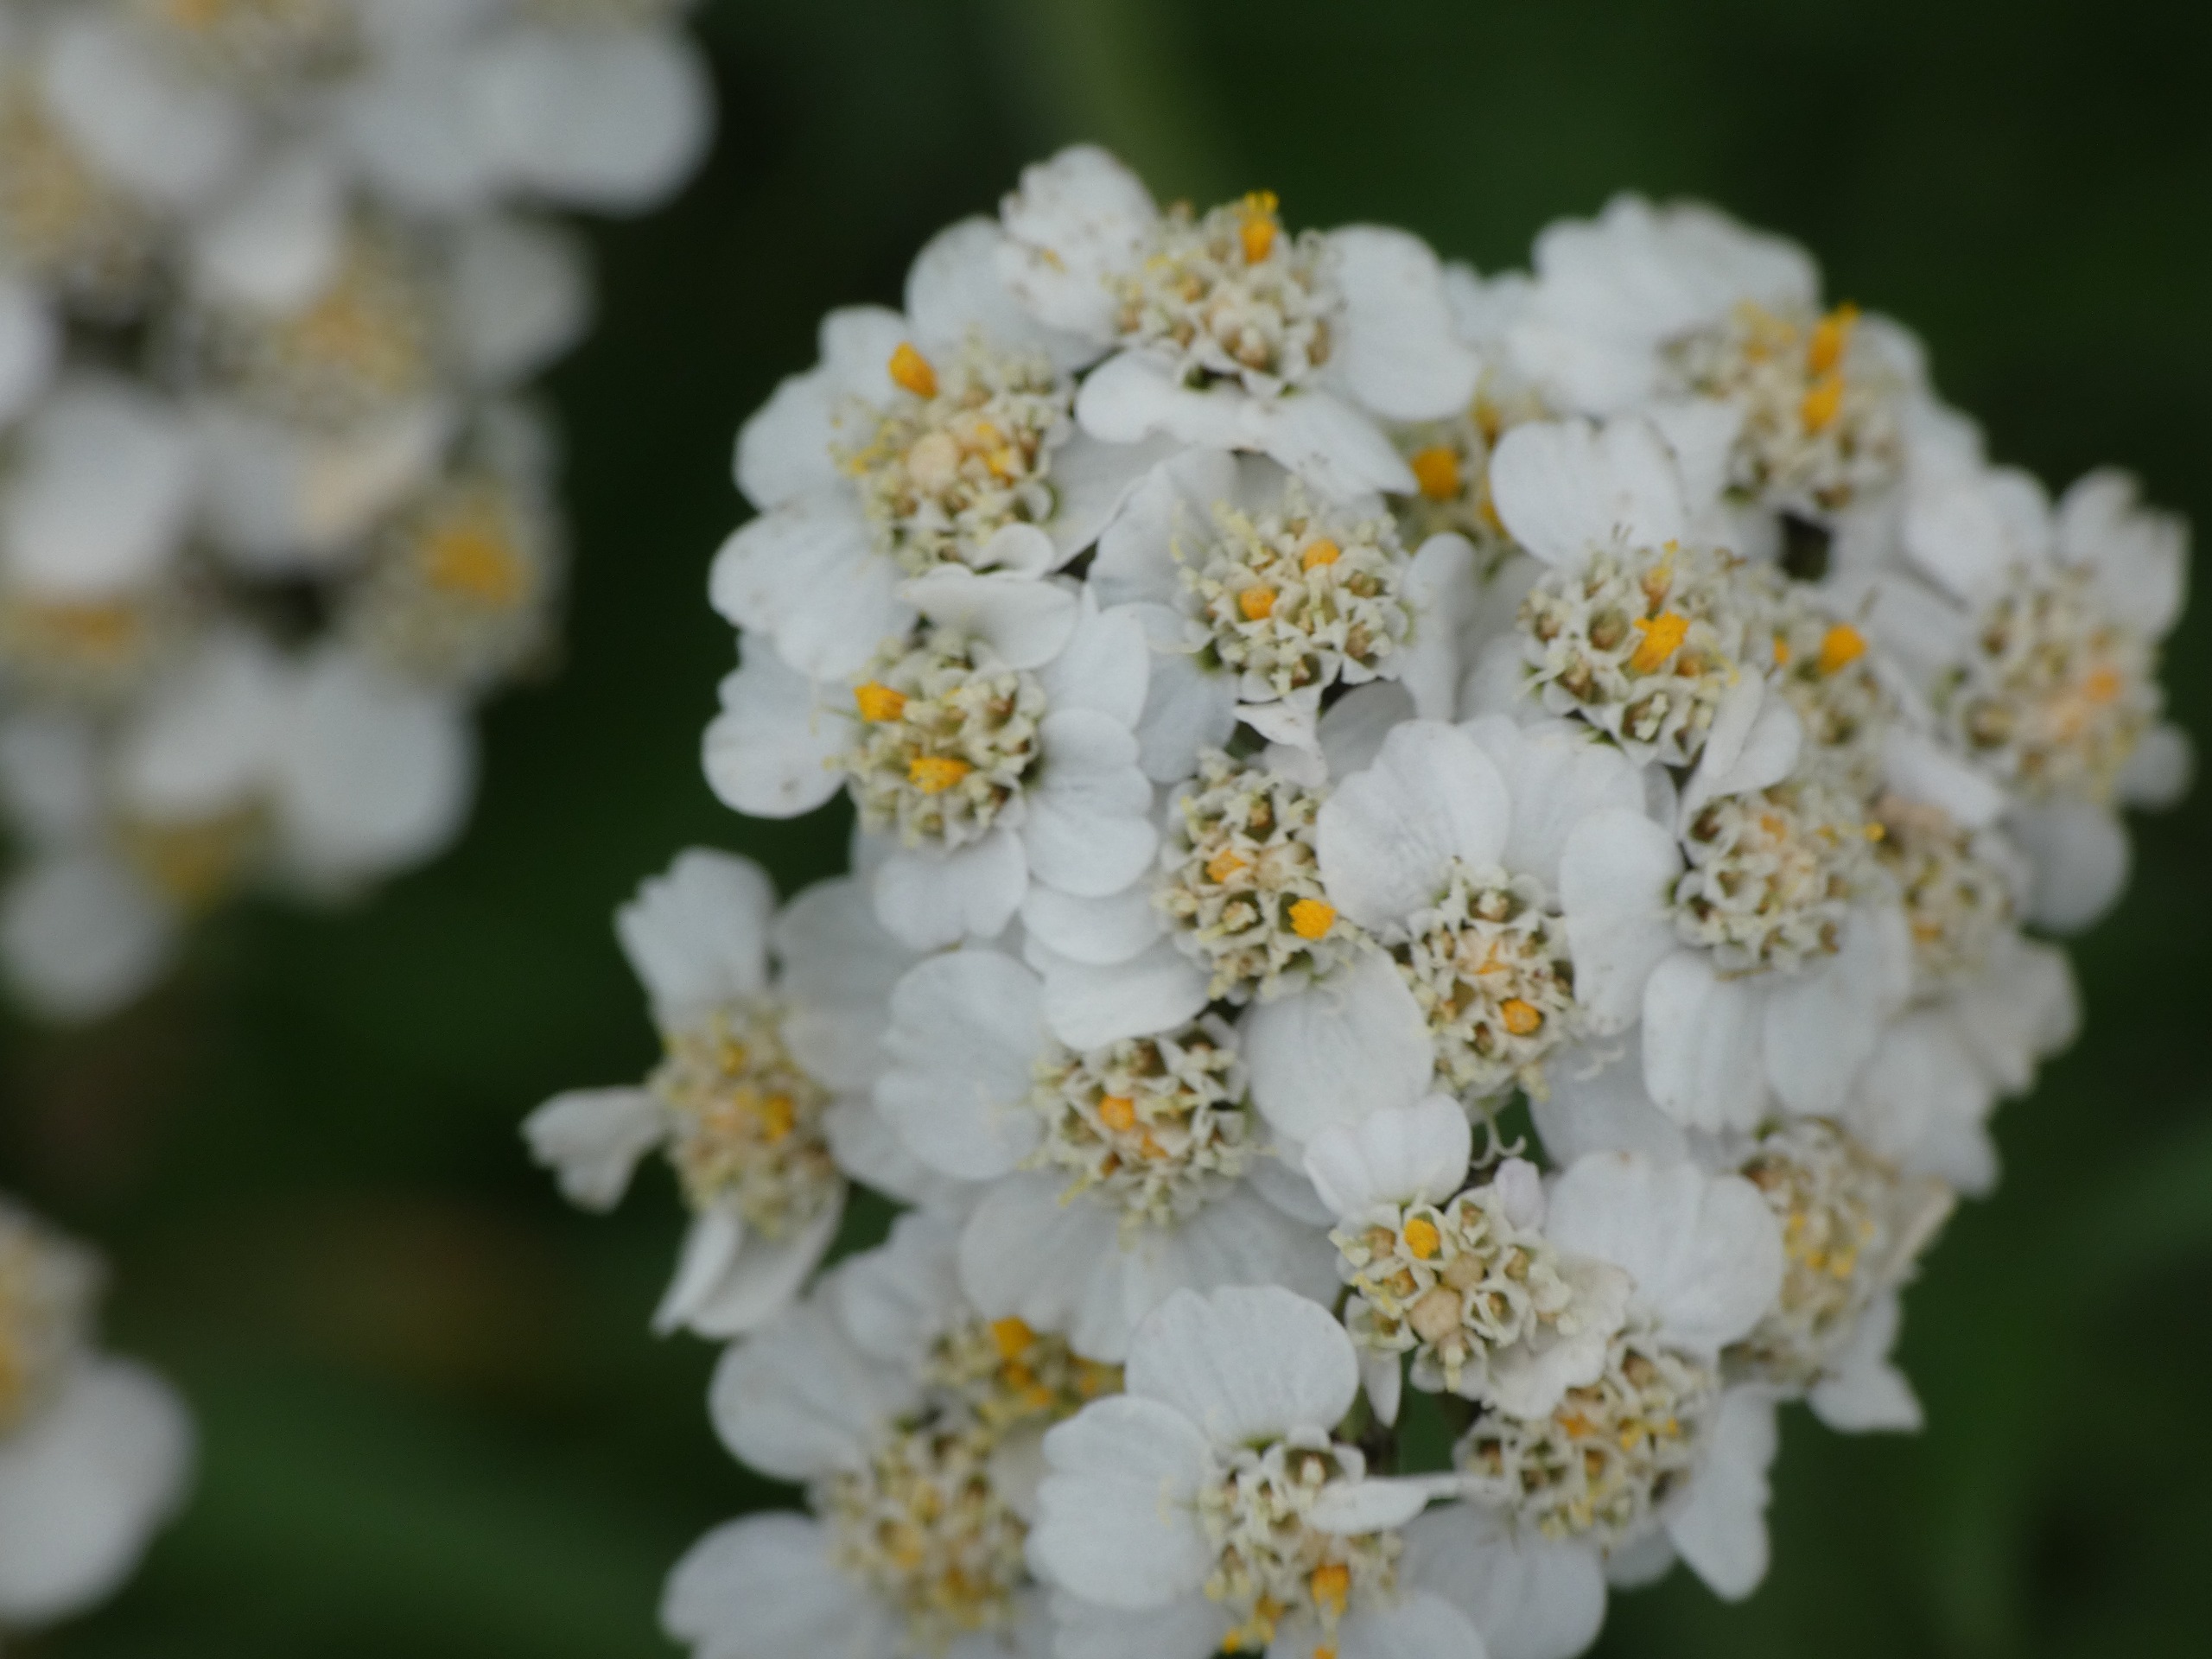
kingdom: Plantae
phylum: Tracheophyta
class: Magnoliopsida
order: Asterales
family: Asteraceae
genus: Achillea
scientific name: Achillea millefolium
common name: Almindelig røllike
